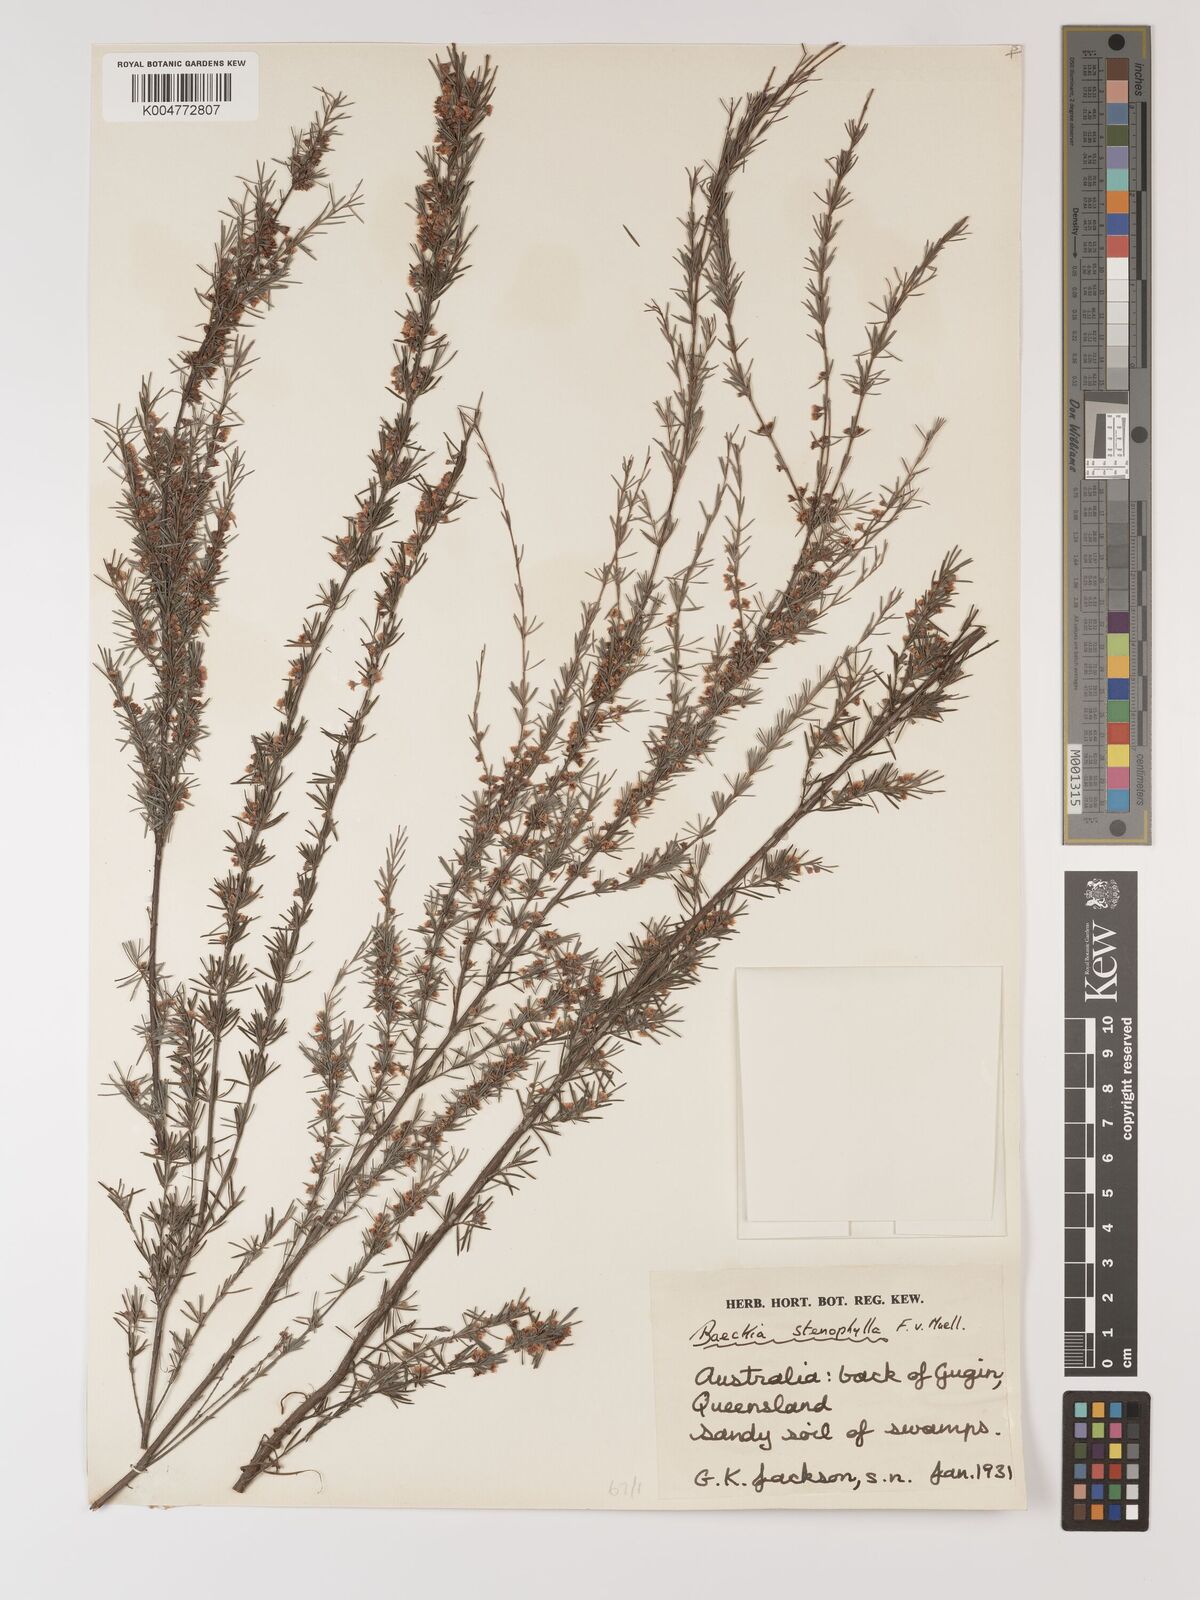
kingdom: Plantae
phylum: Tracheophyta
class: Magnoliopsida
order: Myrtales
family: Myrtaceae
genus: Baeckea
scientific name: Baeckea frutescens
